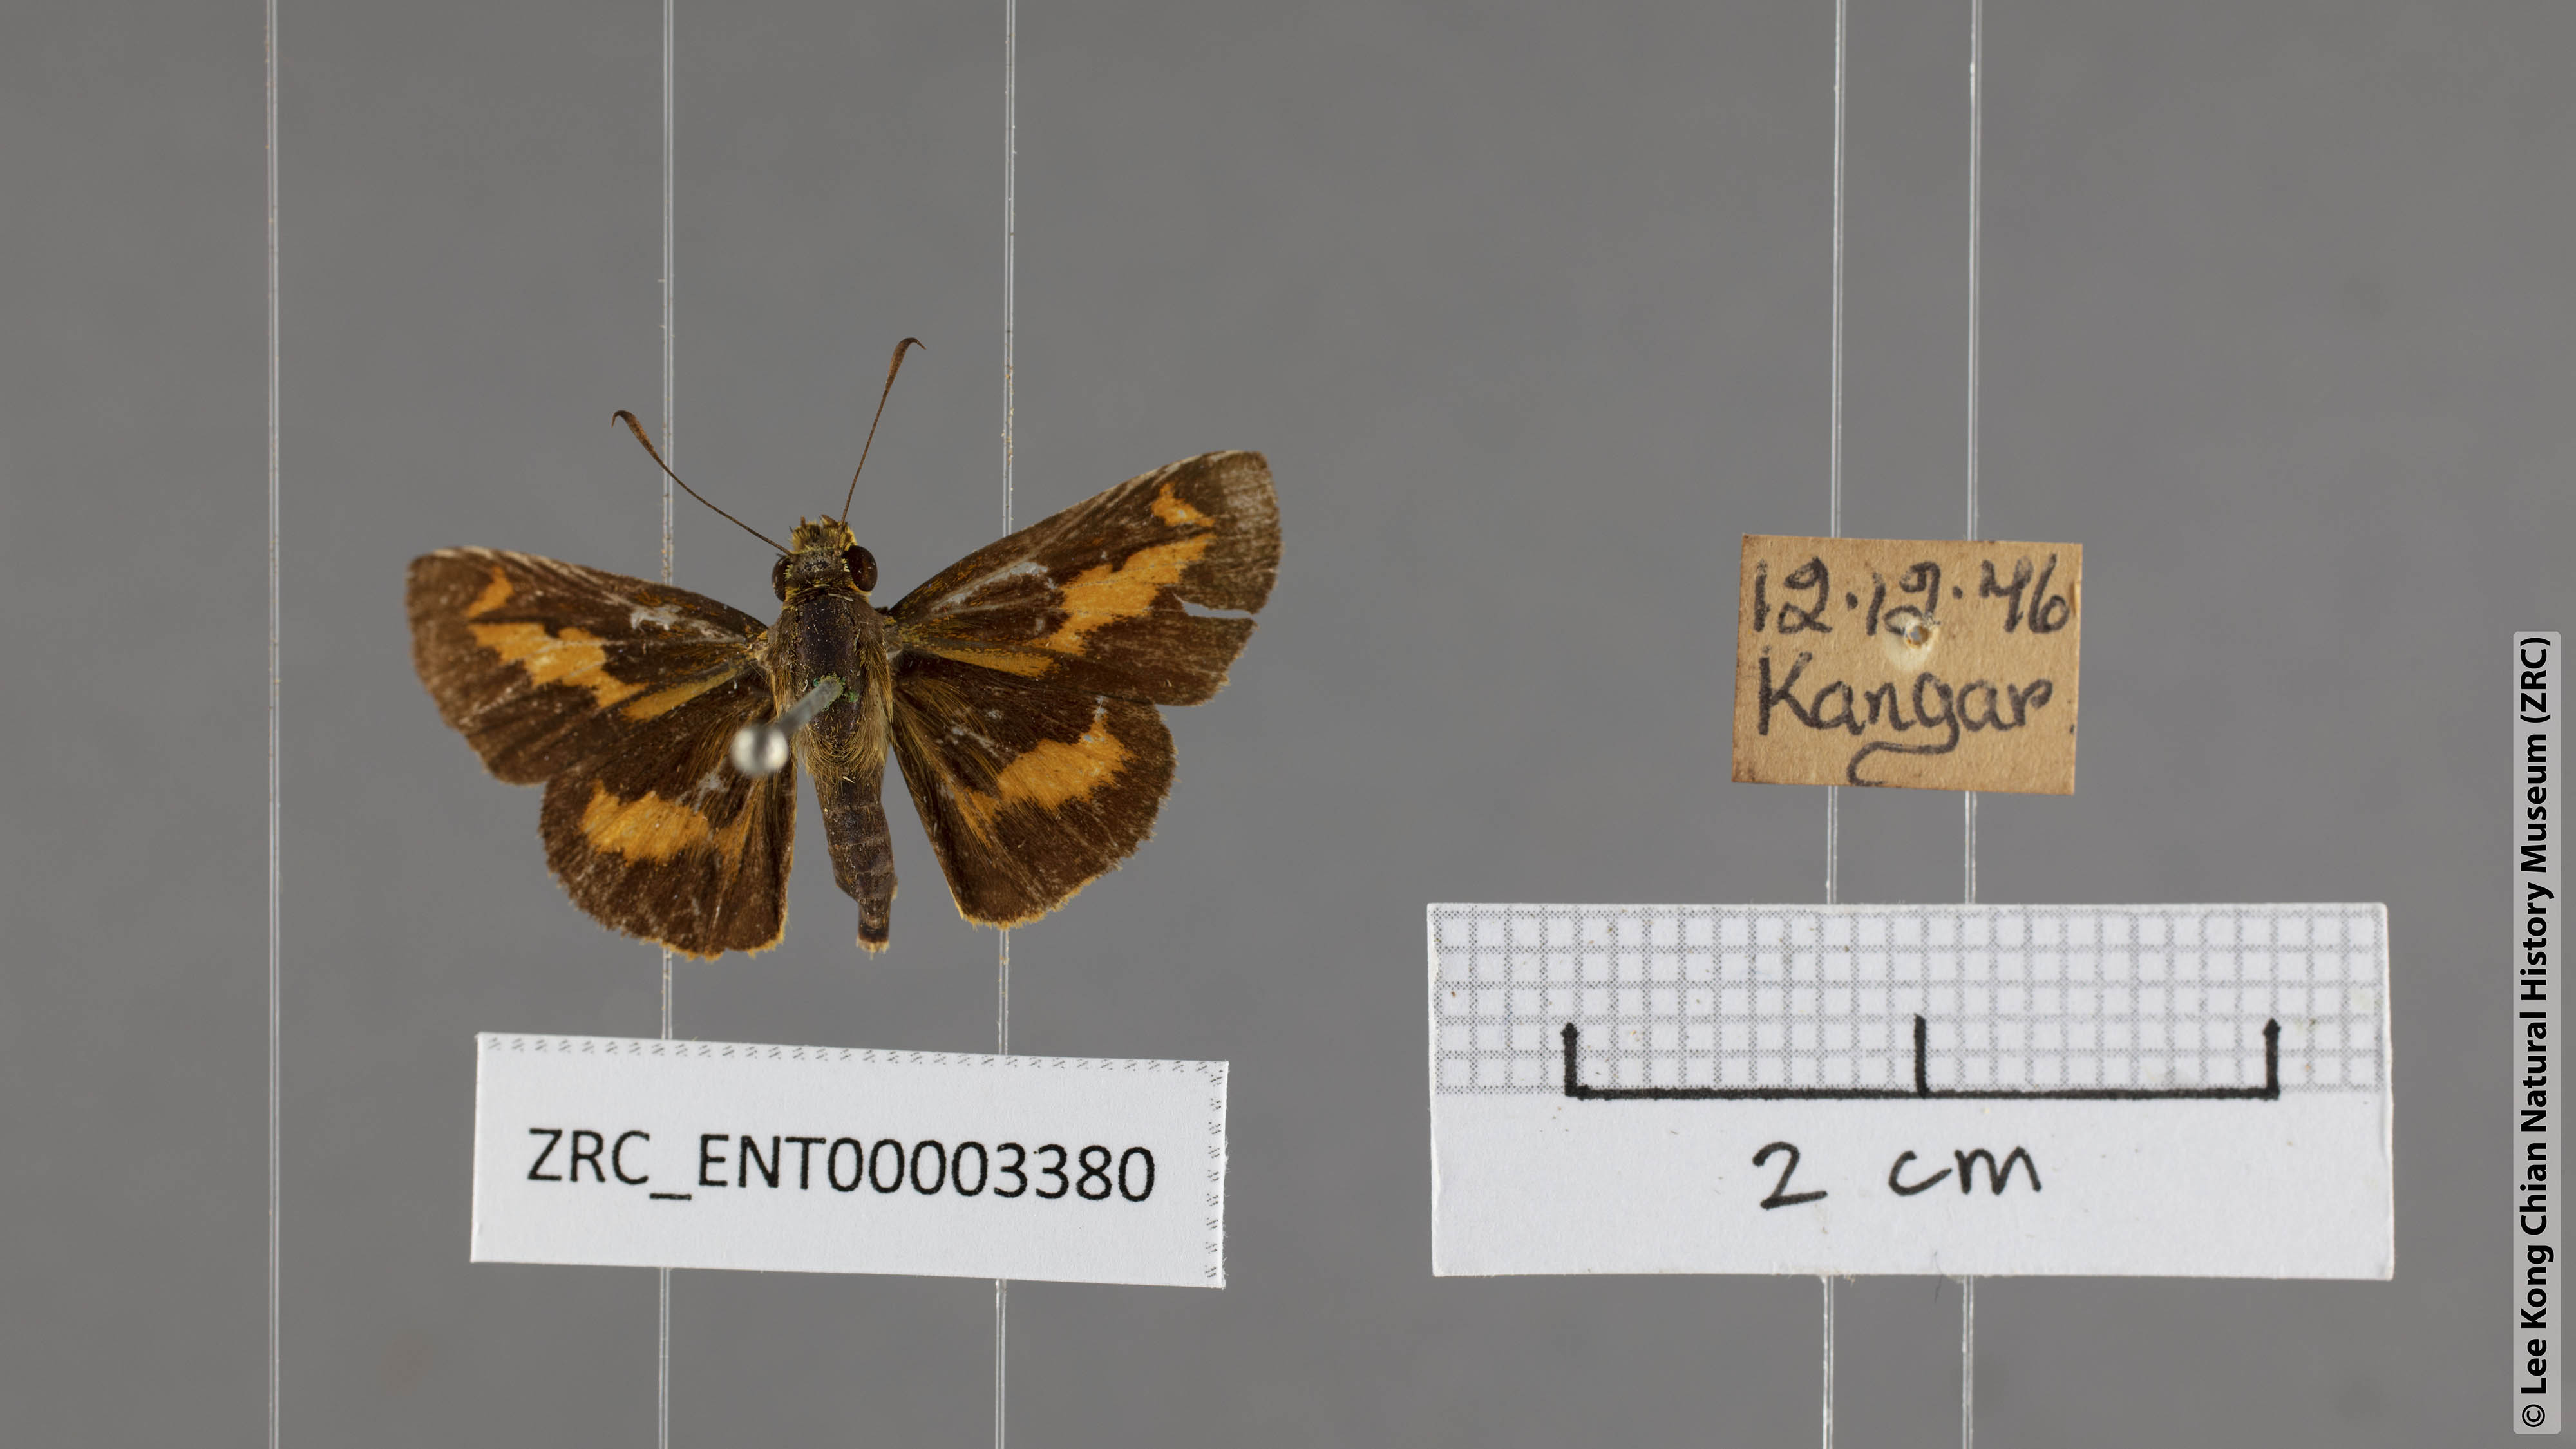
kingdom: Animalia
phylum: Arthropoda
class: Insecta
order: Lepidoptera
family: Hesperiidae
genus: Oriens
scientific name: Oriens paragola
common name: Malay dartlet
